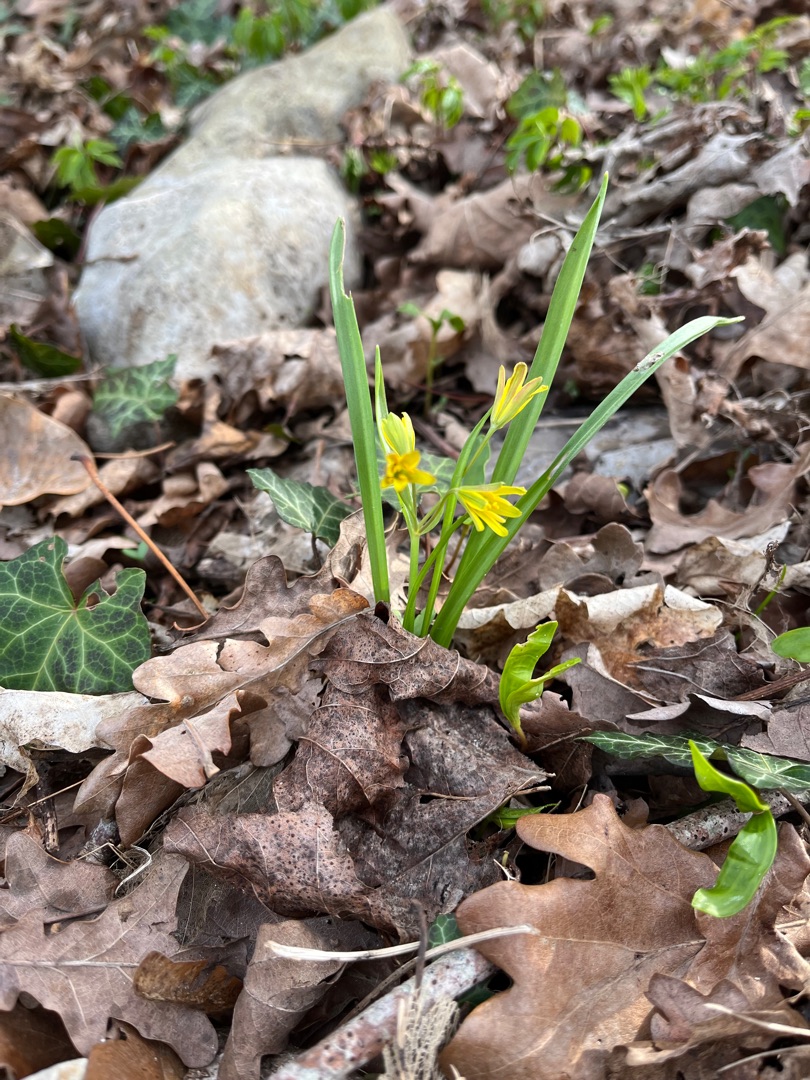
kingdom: Plantae
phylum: Tracheophyta
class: Liliopsida
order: Liliales
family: Liliaceae
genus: Gagea
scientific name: Gagea lutea
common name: Almindelig guldstjerne
